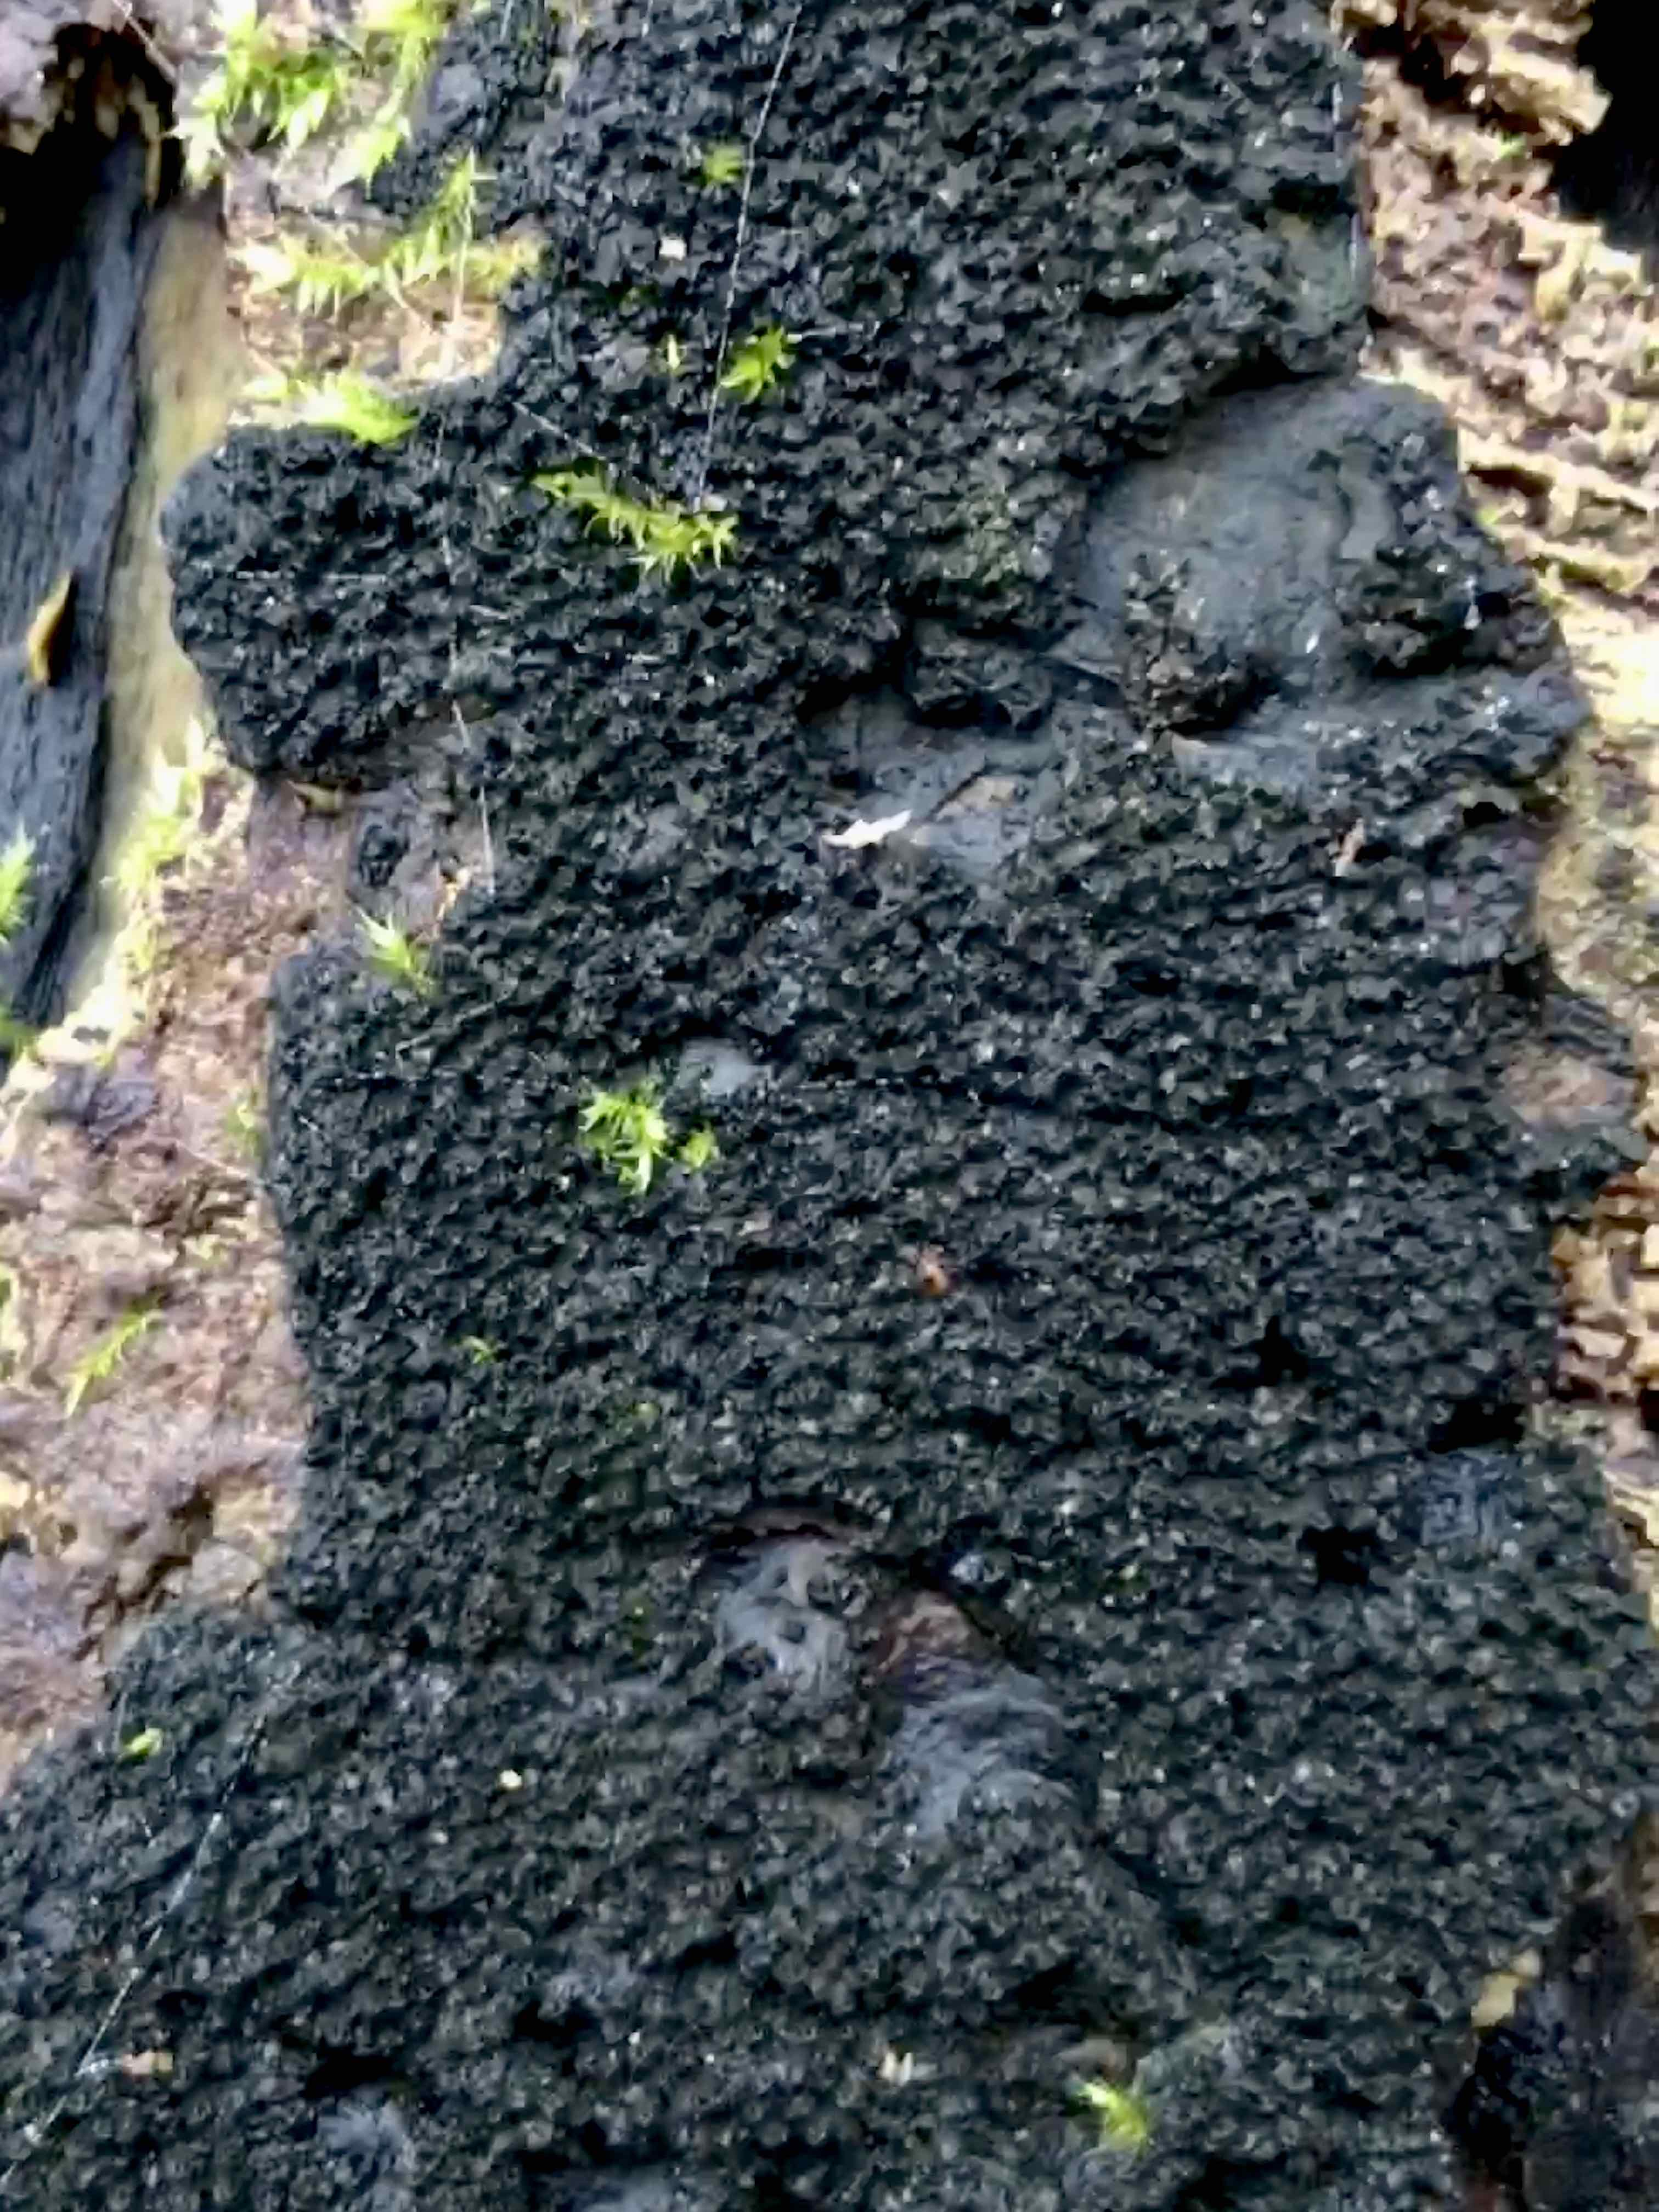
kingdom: Fungi
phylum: Ascomycota
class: Sordariomycetes
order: Xylariales
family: Diatrypaceae
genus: Eutypa
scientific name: Eutypa spinosa
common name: grov kulskorpe
